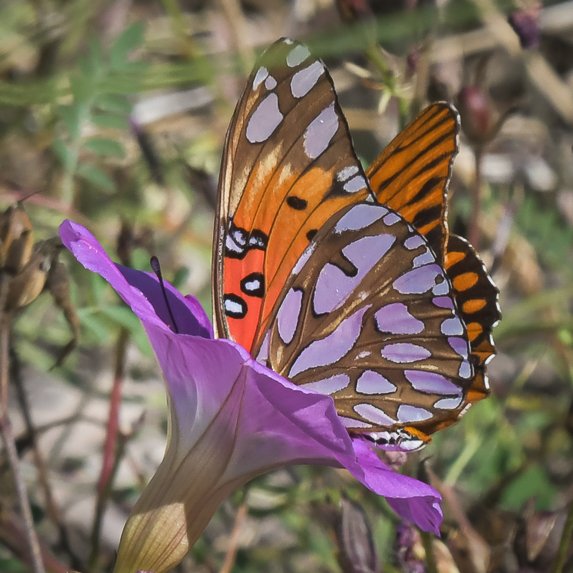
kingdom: Animalia
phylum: Arthropoda
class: Insecta
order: Lepidoptera
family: Nymphalidae
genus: Dione
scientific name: Dione vanillae
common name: Gulf Fritillary
